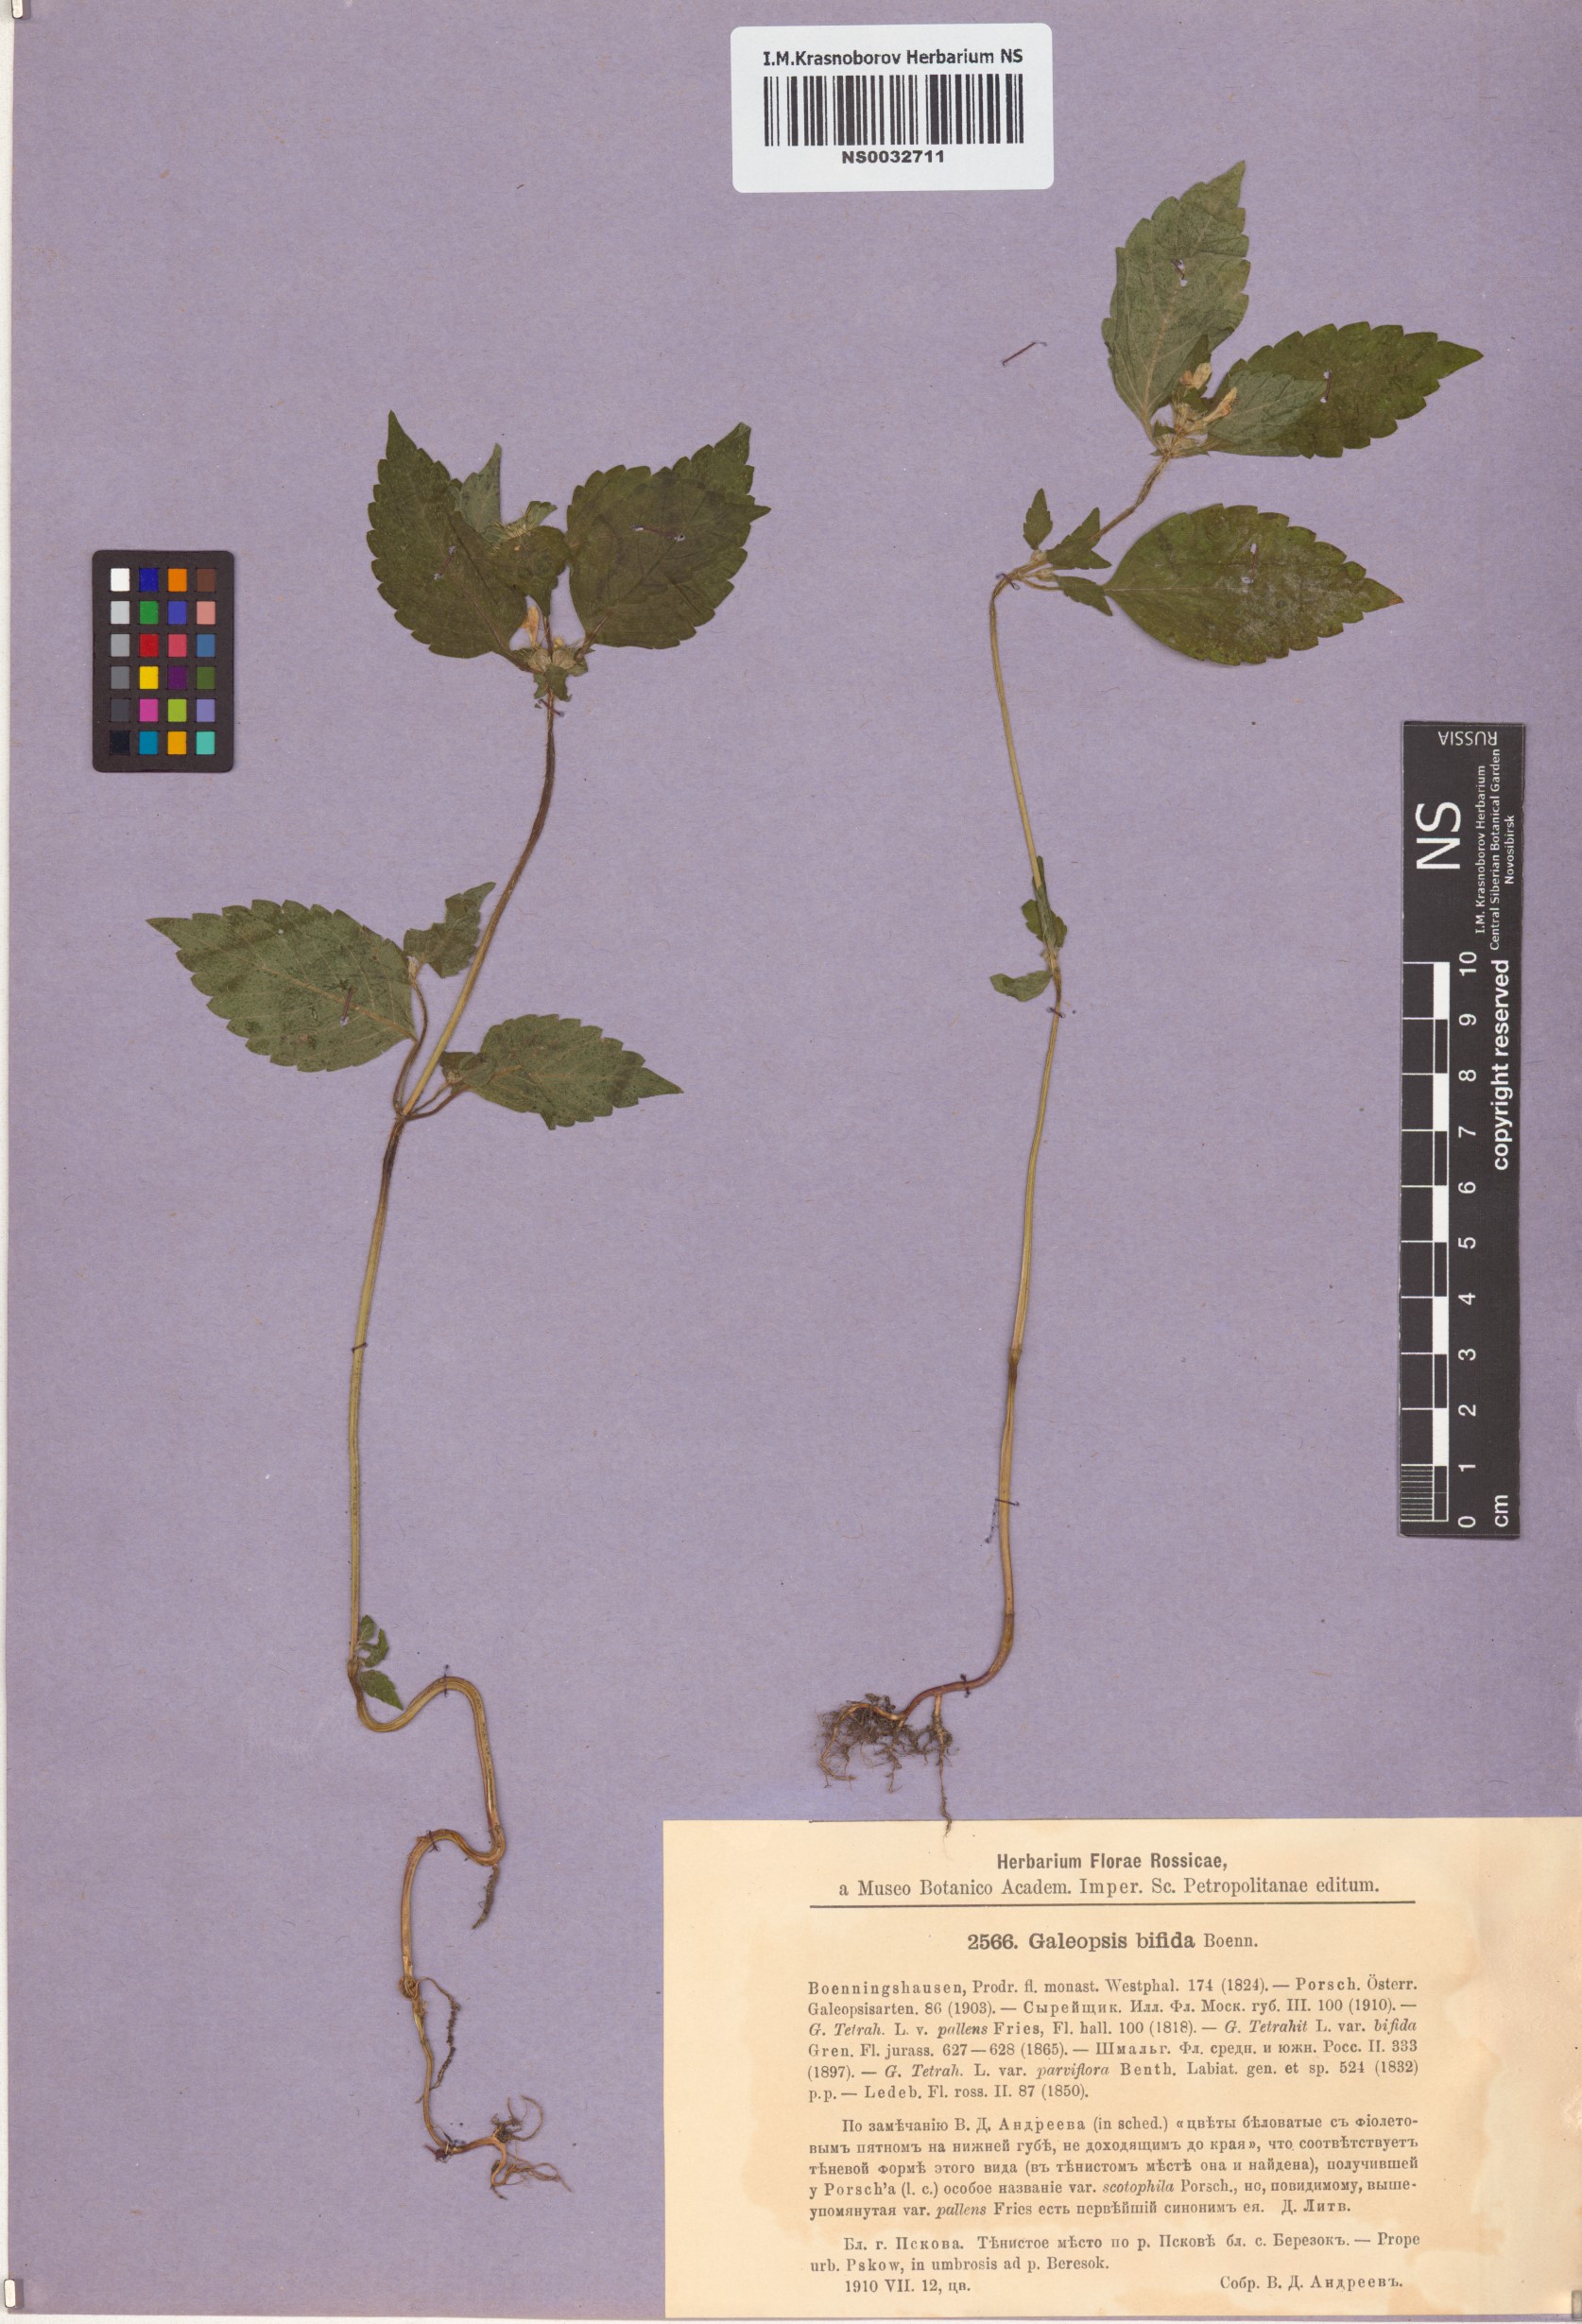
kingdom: Plantae
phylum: Tracheophyta
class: Magnoliopsida
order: Lamiales
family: Lamiaceae
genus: Galeopsis
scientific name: Galeopsis bifida
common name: Bifid hemp-nettle
